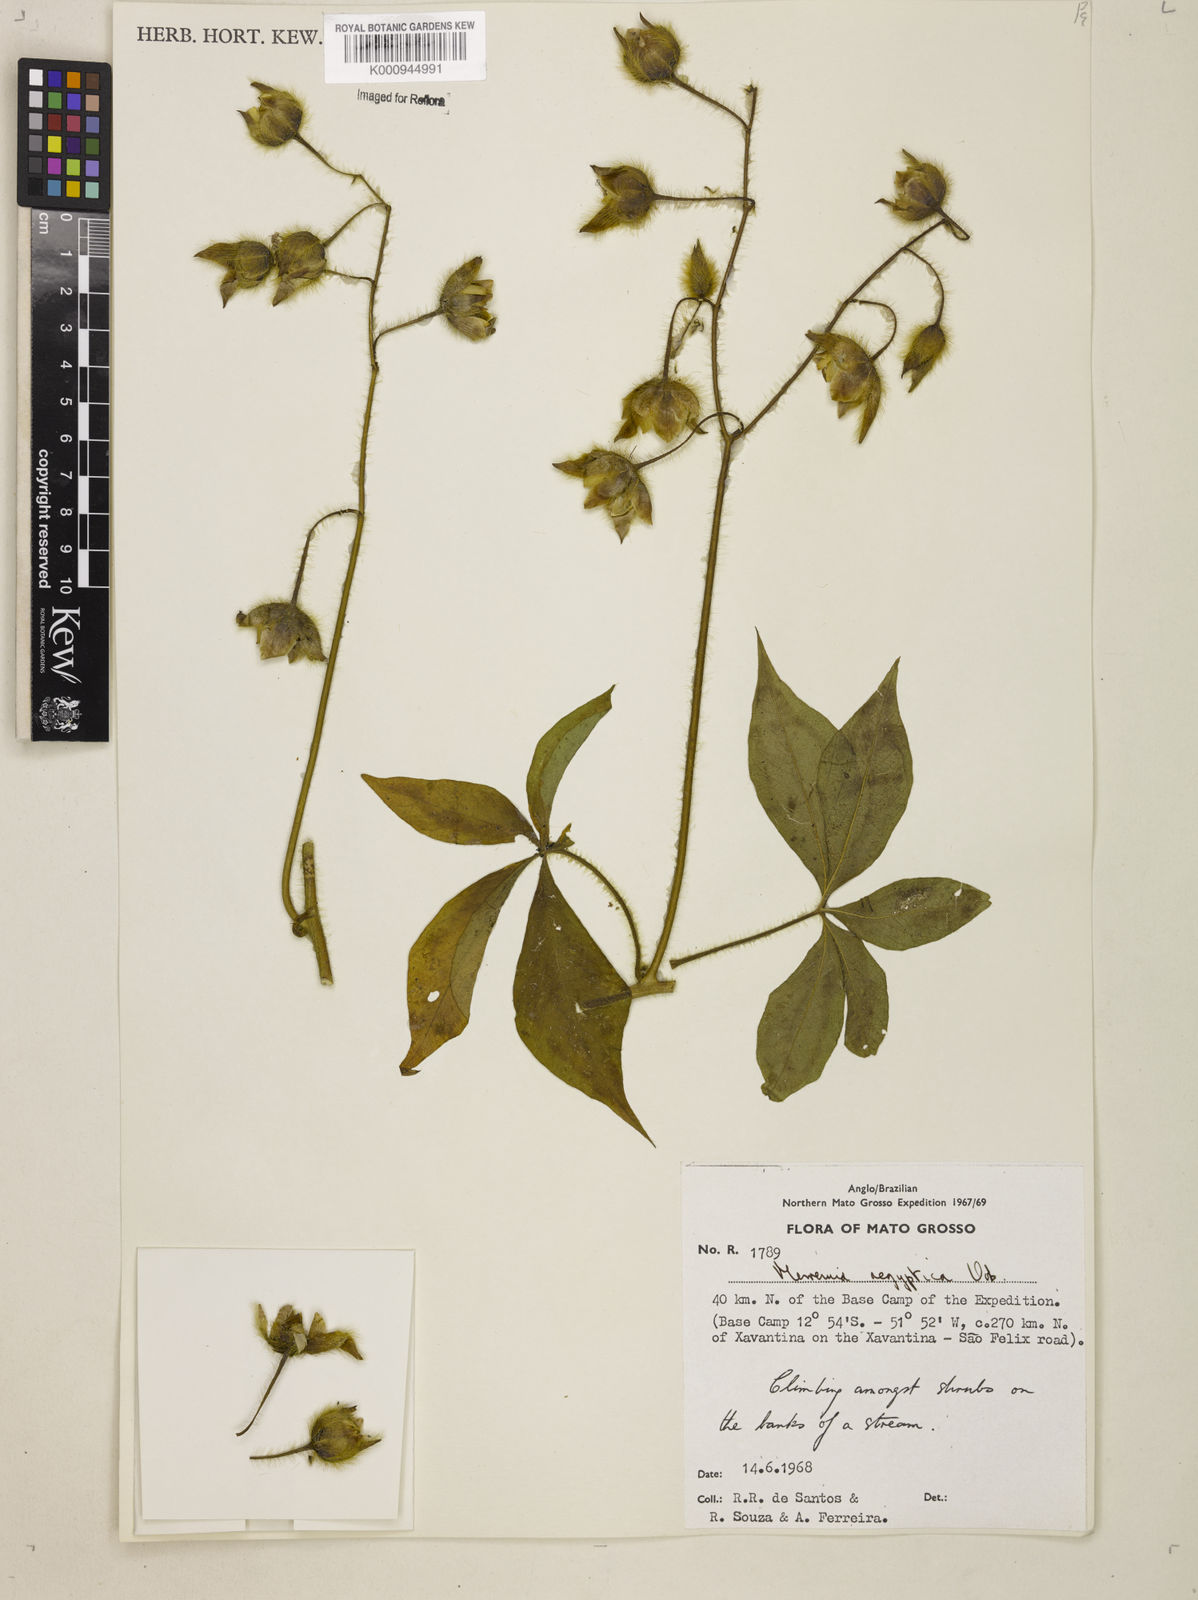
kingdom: Plantae
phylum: Tracheophyta
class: Magnoliopsida
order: Solanales
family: Convolvulaceae
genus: Distimake
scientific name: Distimake aegyptius
